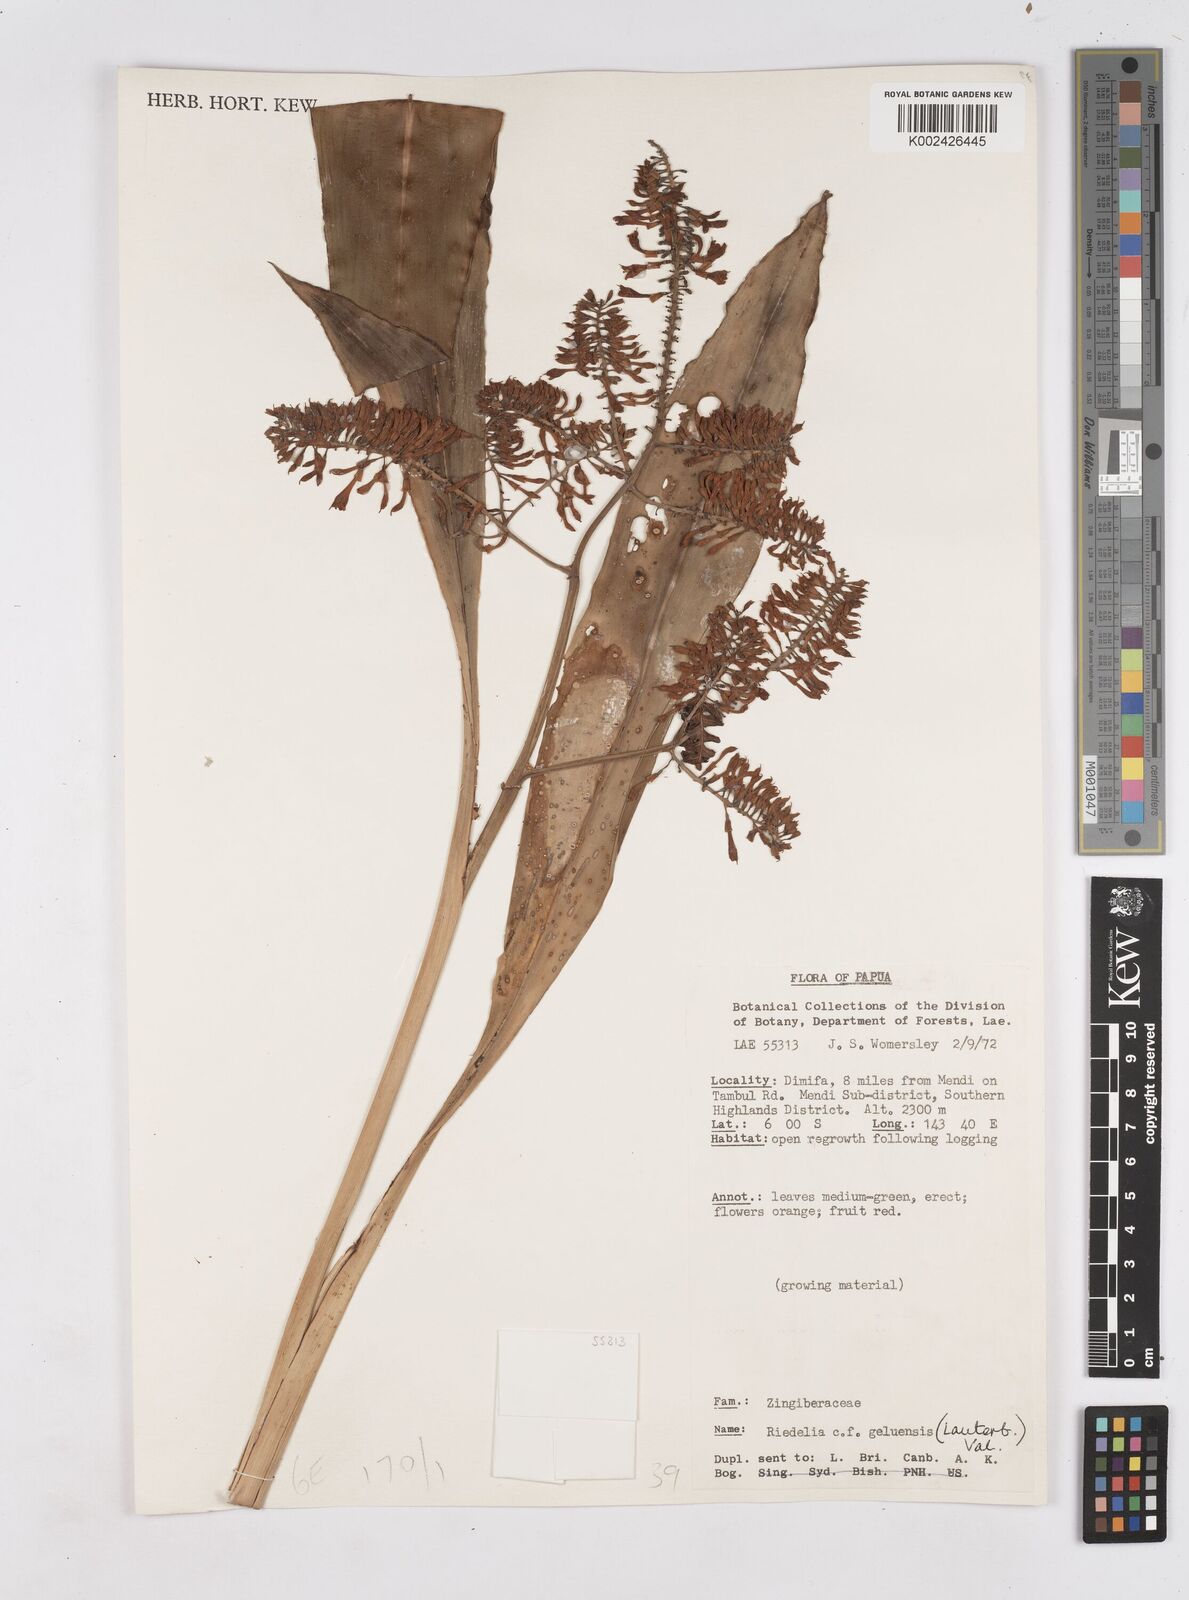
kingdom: Plantae
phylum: Tracheophyta
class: Liliopsida
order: Zingiberales
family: Zingiberaceae
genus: Riedelia
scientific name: Riedelia geluensis
